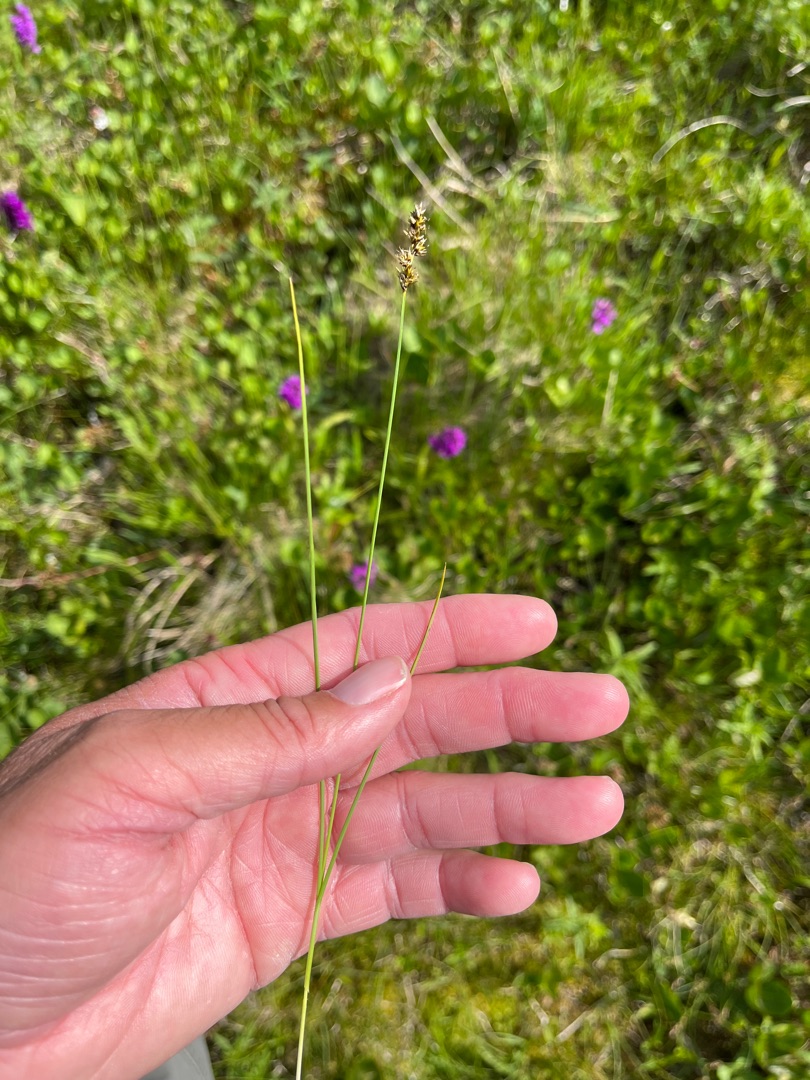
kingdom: Plantae
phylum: Tracheophyta
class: Liliopsida
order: Poales
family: Cyperaceae
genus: Carex
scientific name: Carex diandra
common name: Trindstænglet star
